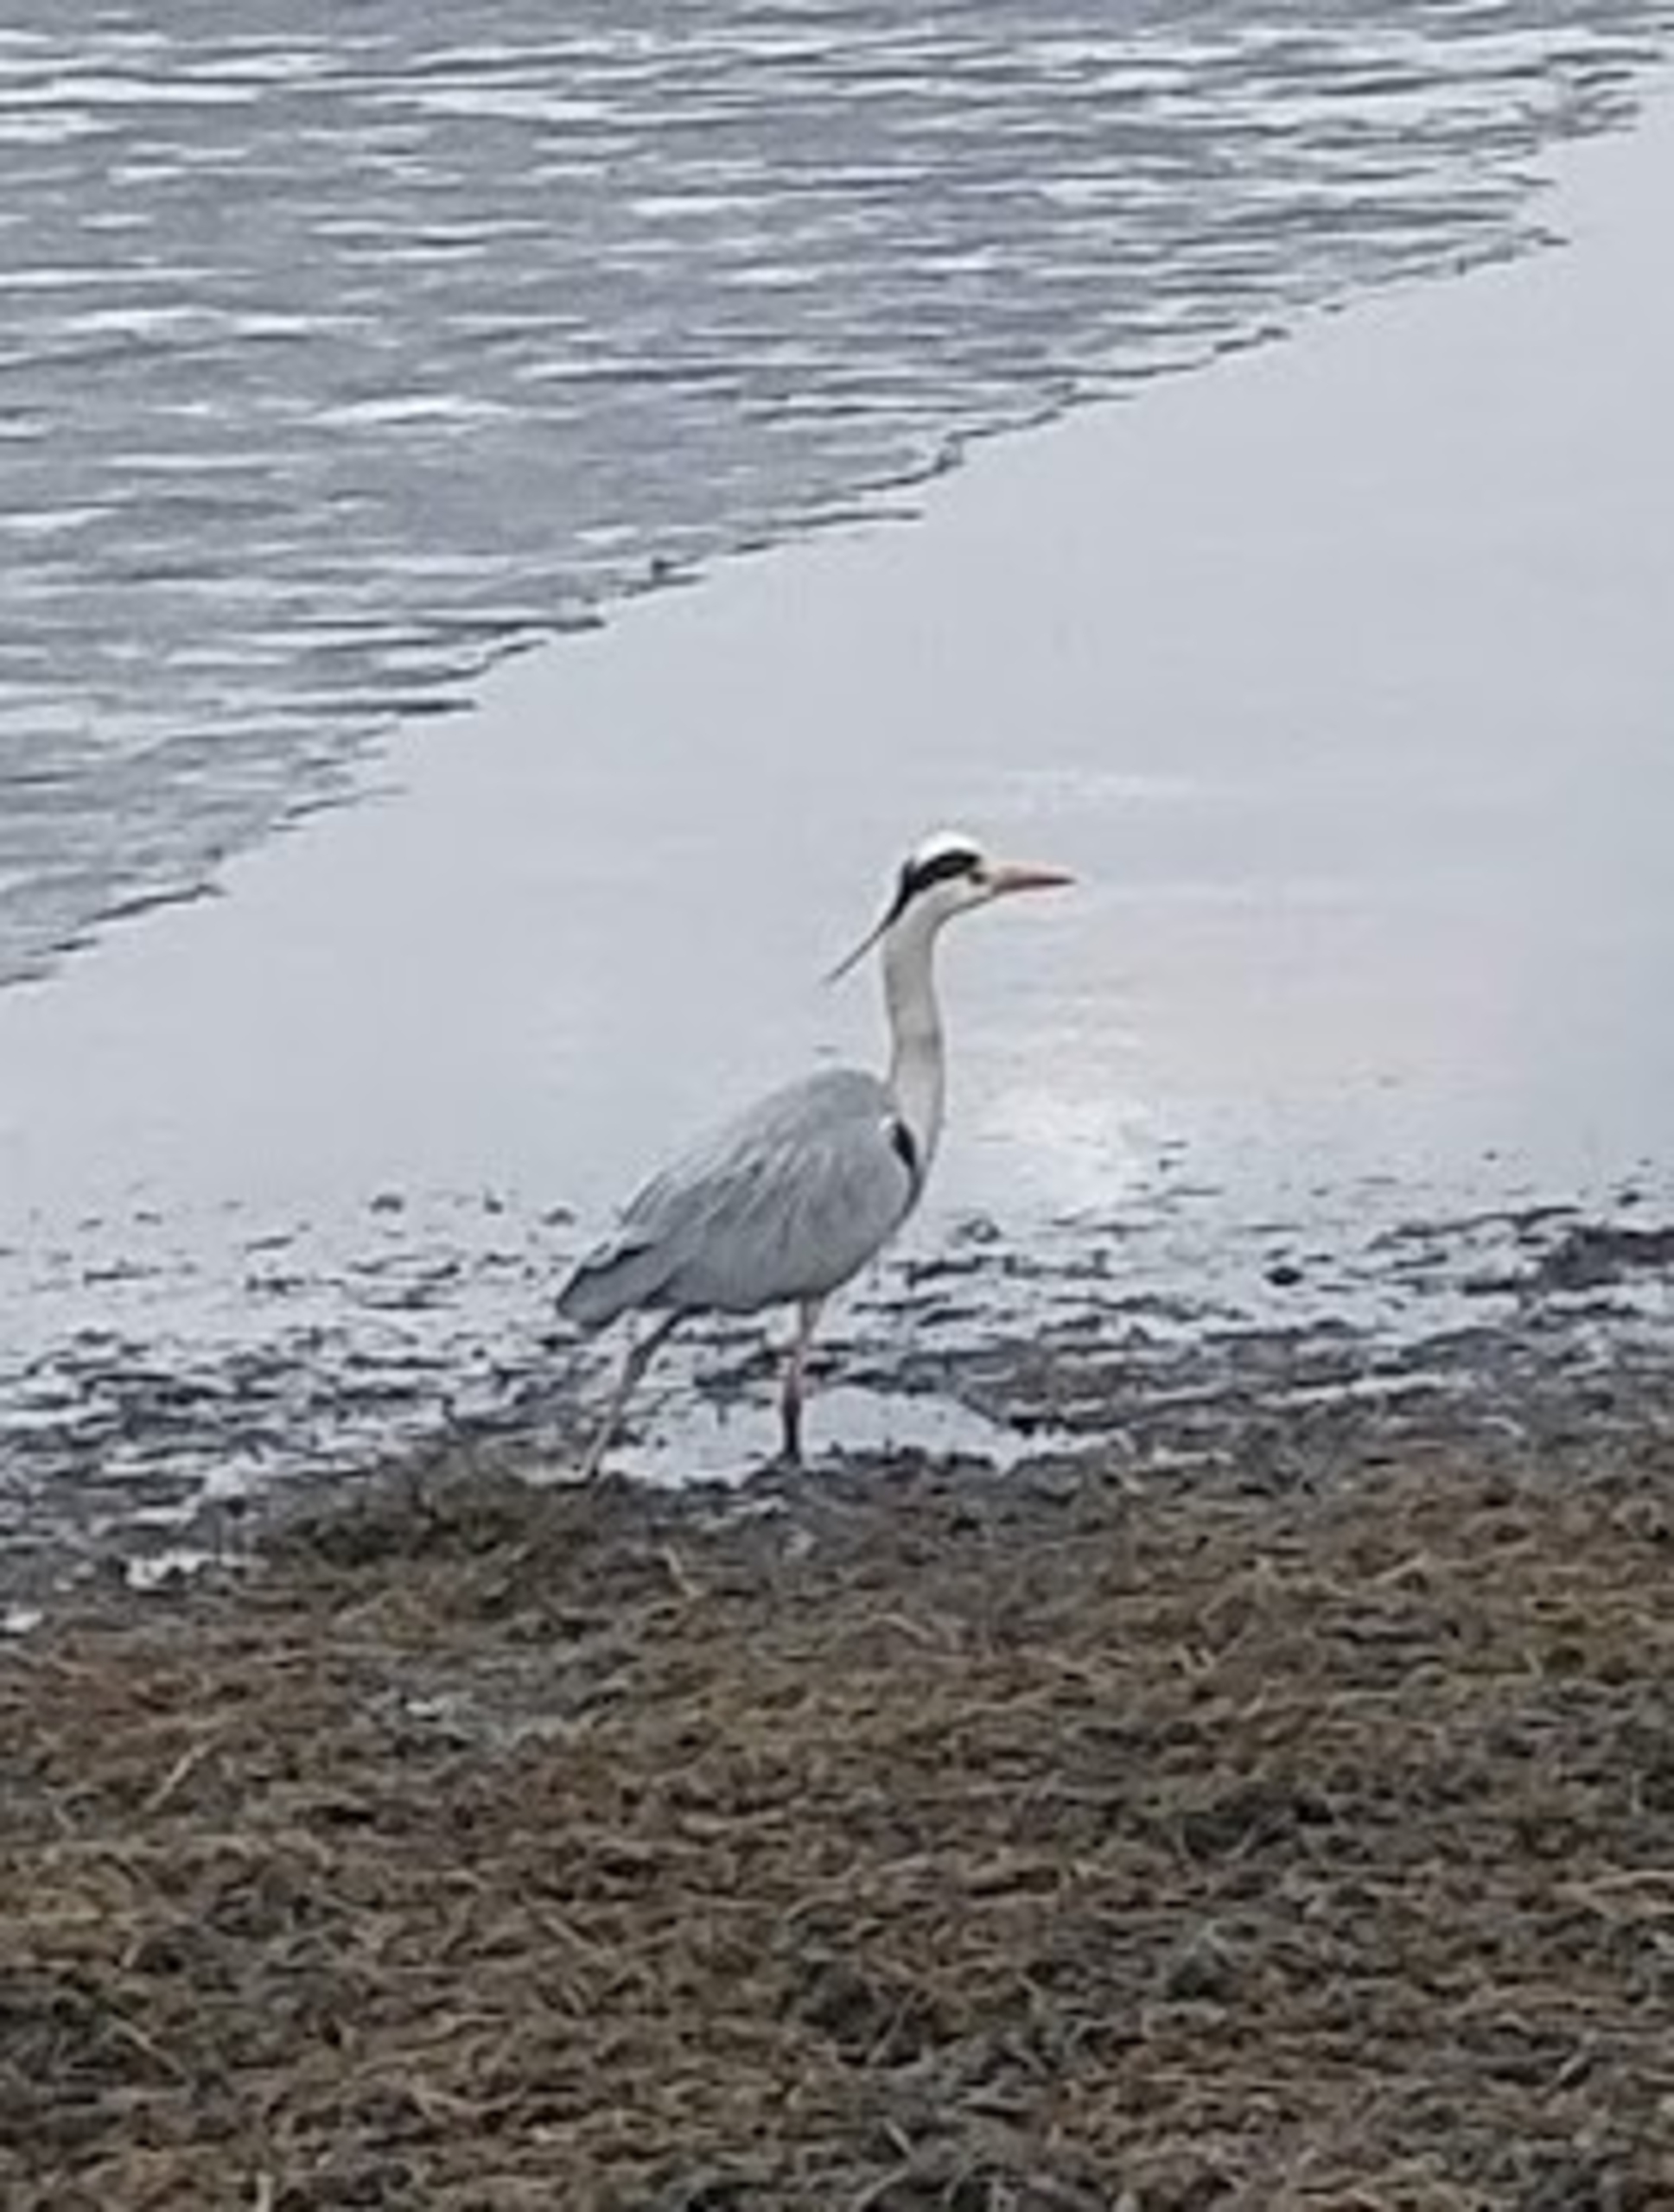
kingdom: Animalia
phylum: Chordata
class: Aves
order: Pelecaniformes
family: Ardeidae
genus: Ardea
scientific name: Ardea cinerea
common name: Fiskehejre
